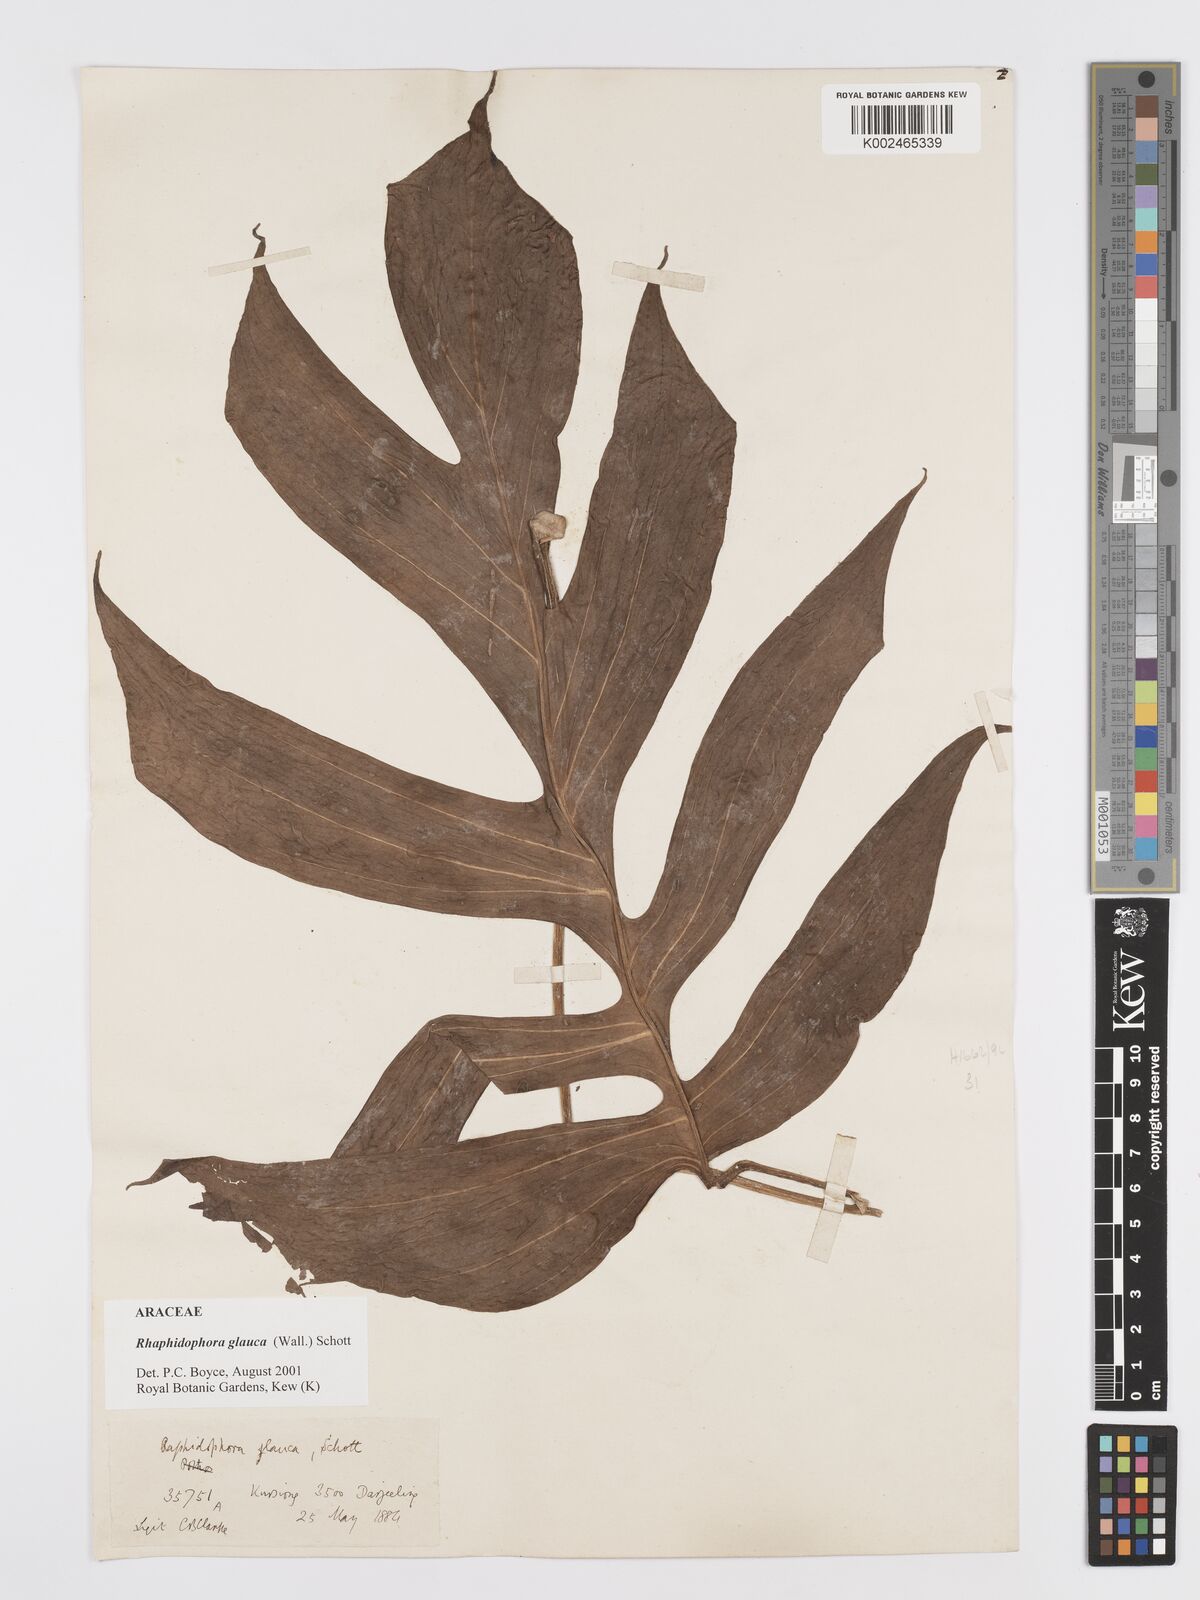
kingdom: Plantae
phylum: Tracheophyta
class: Liliopsida
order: Alismatales
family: Araceae
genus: Rhaphidophora
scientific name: Rhaphidophora glauca
